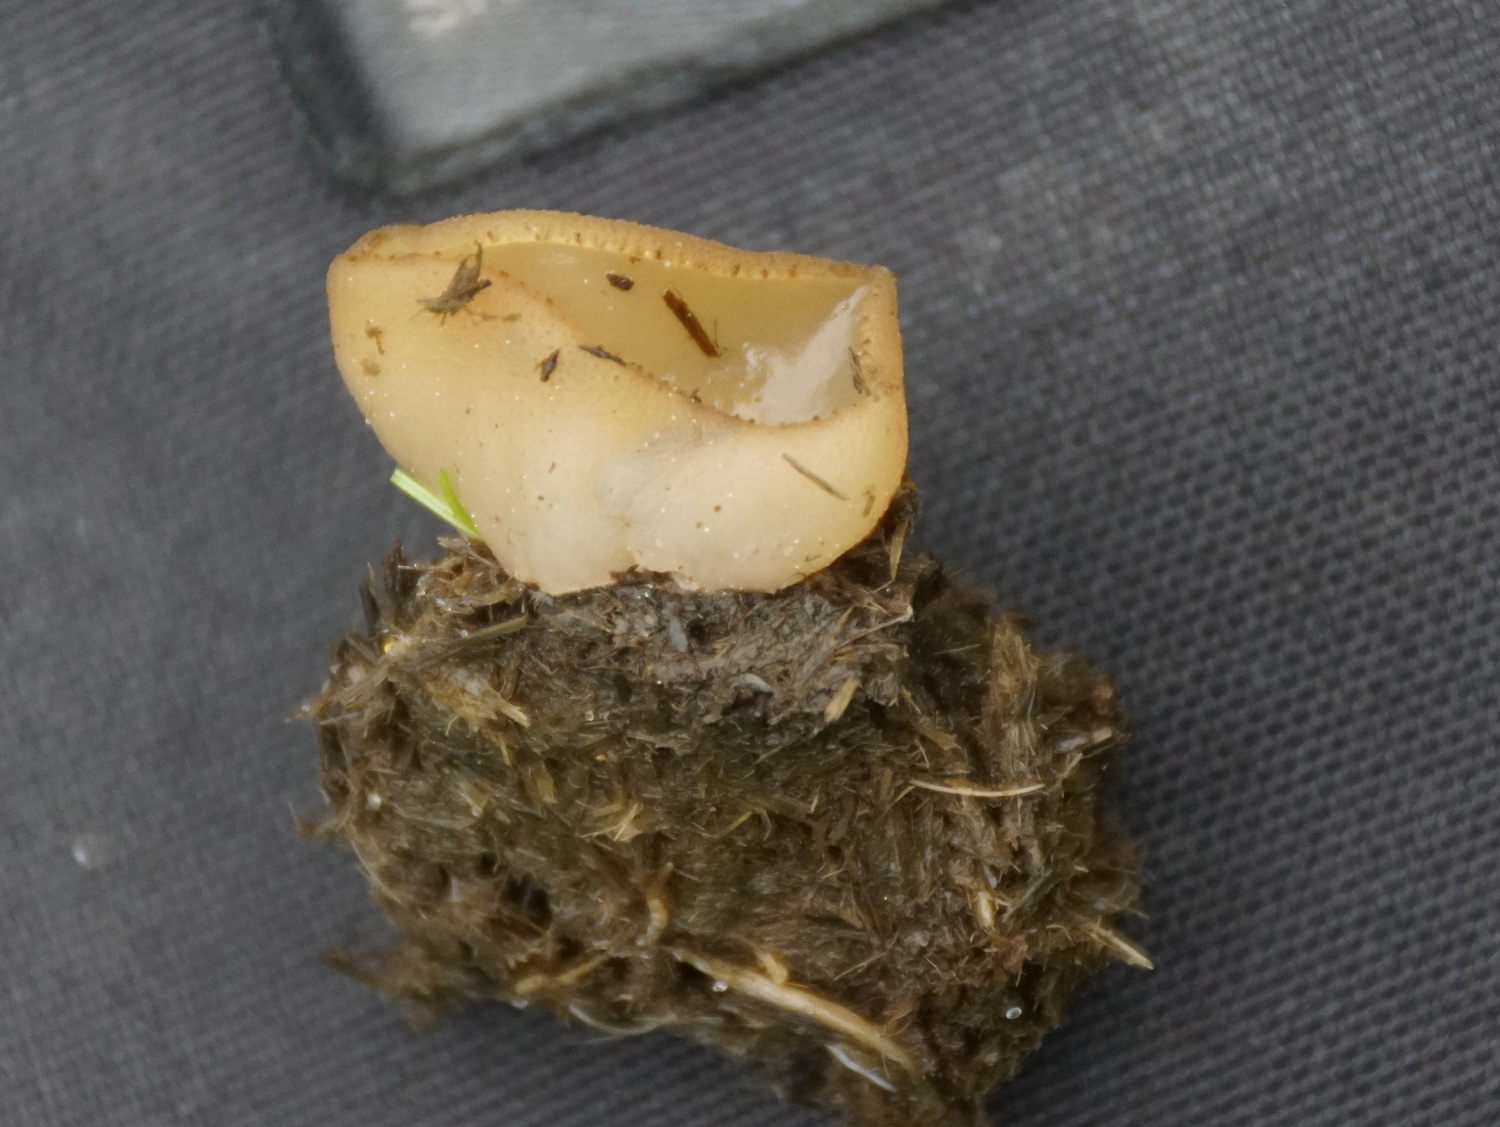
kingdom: Fungi
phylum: Ascomycota
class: Pezizomycetes
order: Pezizales
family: Pezizaceae
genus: Peziza
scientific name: Peziza fimeti
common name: møg-bægersvamp
